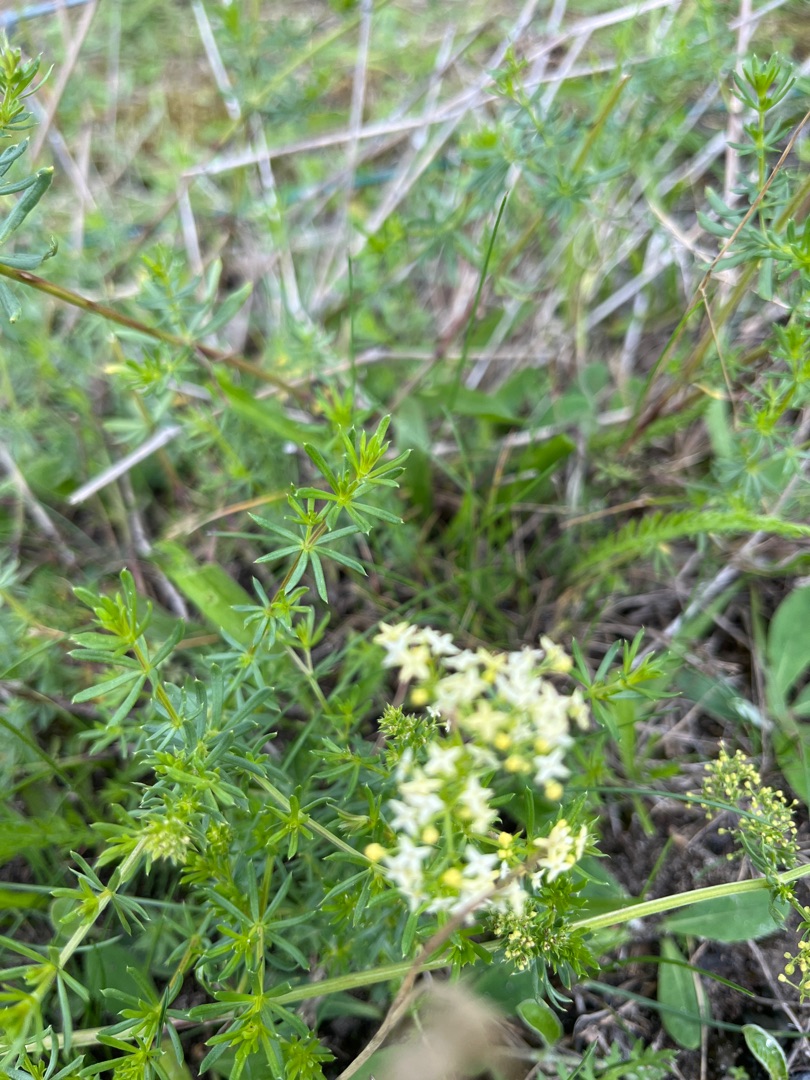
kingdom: Plantae
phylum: Tracheophyta
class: Magnoliopsida
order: Gentianales
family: Rubiaceae
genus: Galium
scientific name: Galium mollugo
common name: Hvid snerre
